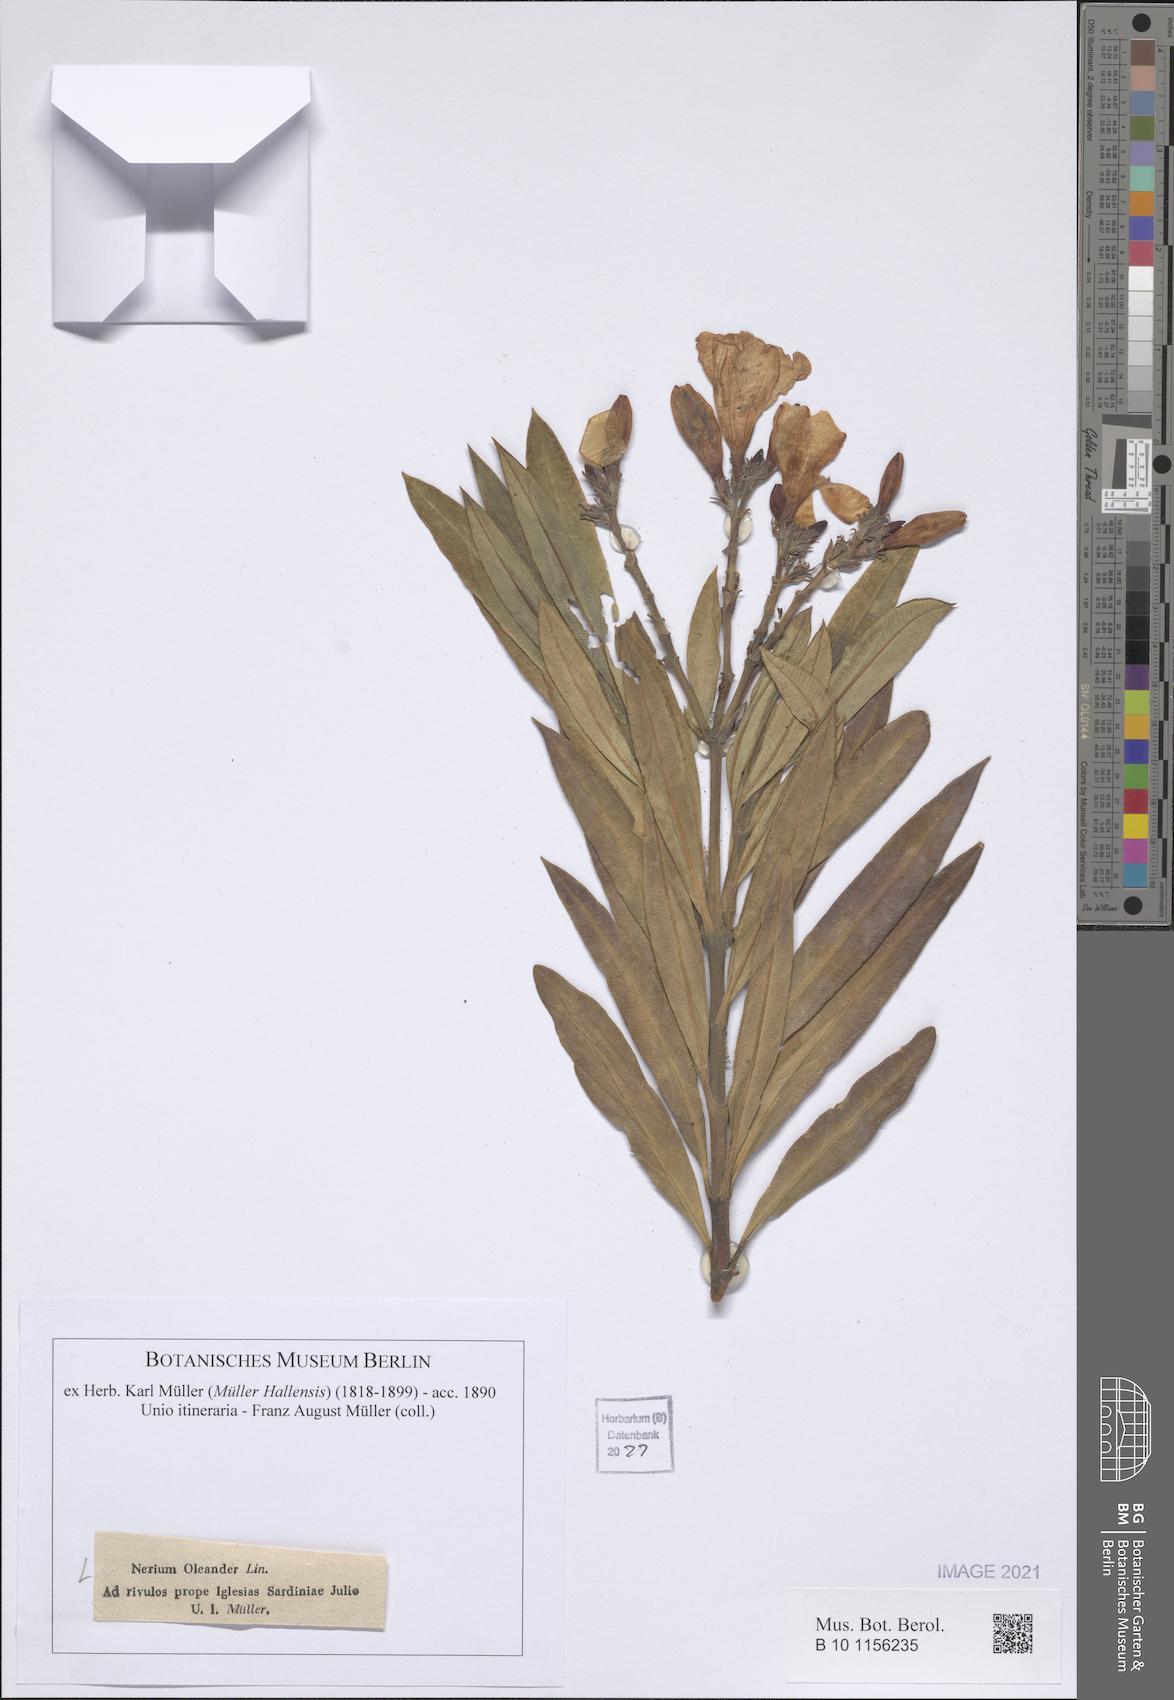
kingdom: Plantae
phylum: Tracheophyta
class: Magnoliopsida
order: Gentianales
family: Apocynaceae
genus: Nerium
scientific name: Nerium oleander
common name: Oleander
